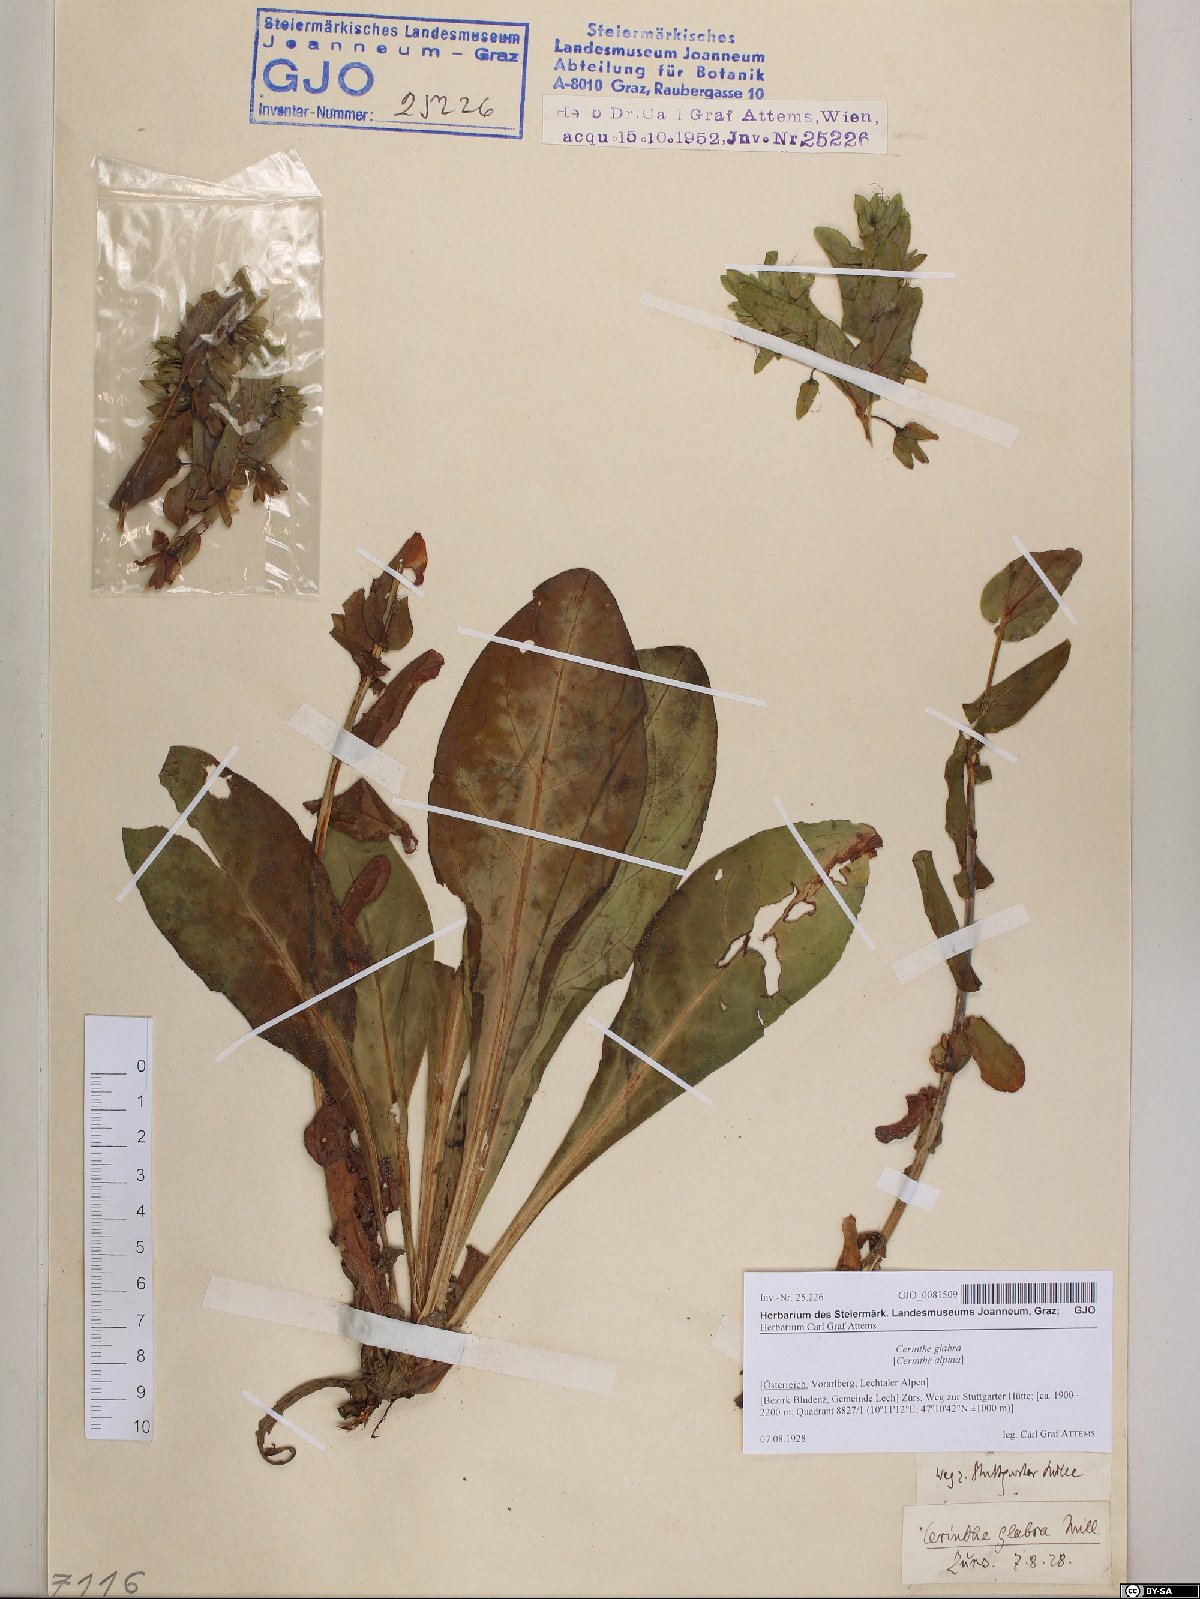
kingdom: Plantae
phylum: Tracheophyta
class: Magnoliopsida
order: Boraginales
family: Boraginaceae
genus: Cerinthe
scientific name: Cerinthe glabra
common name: Smooth honeywort
